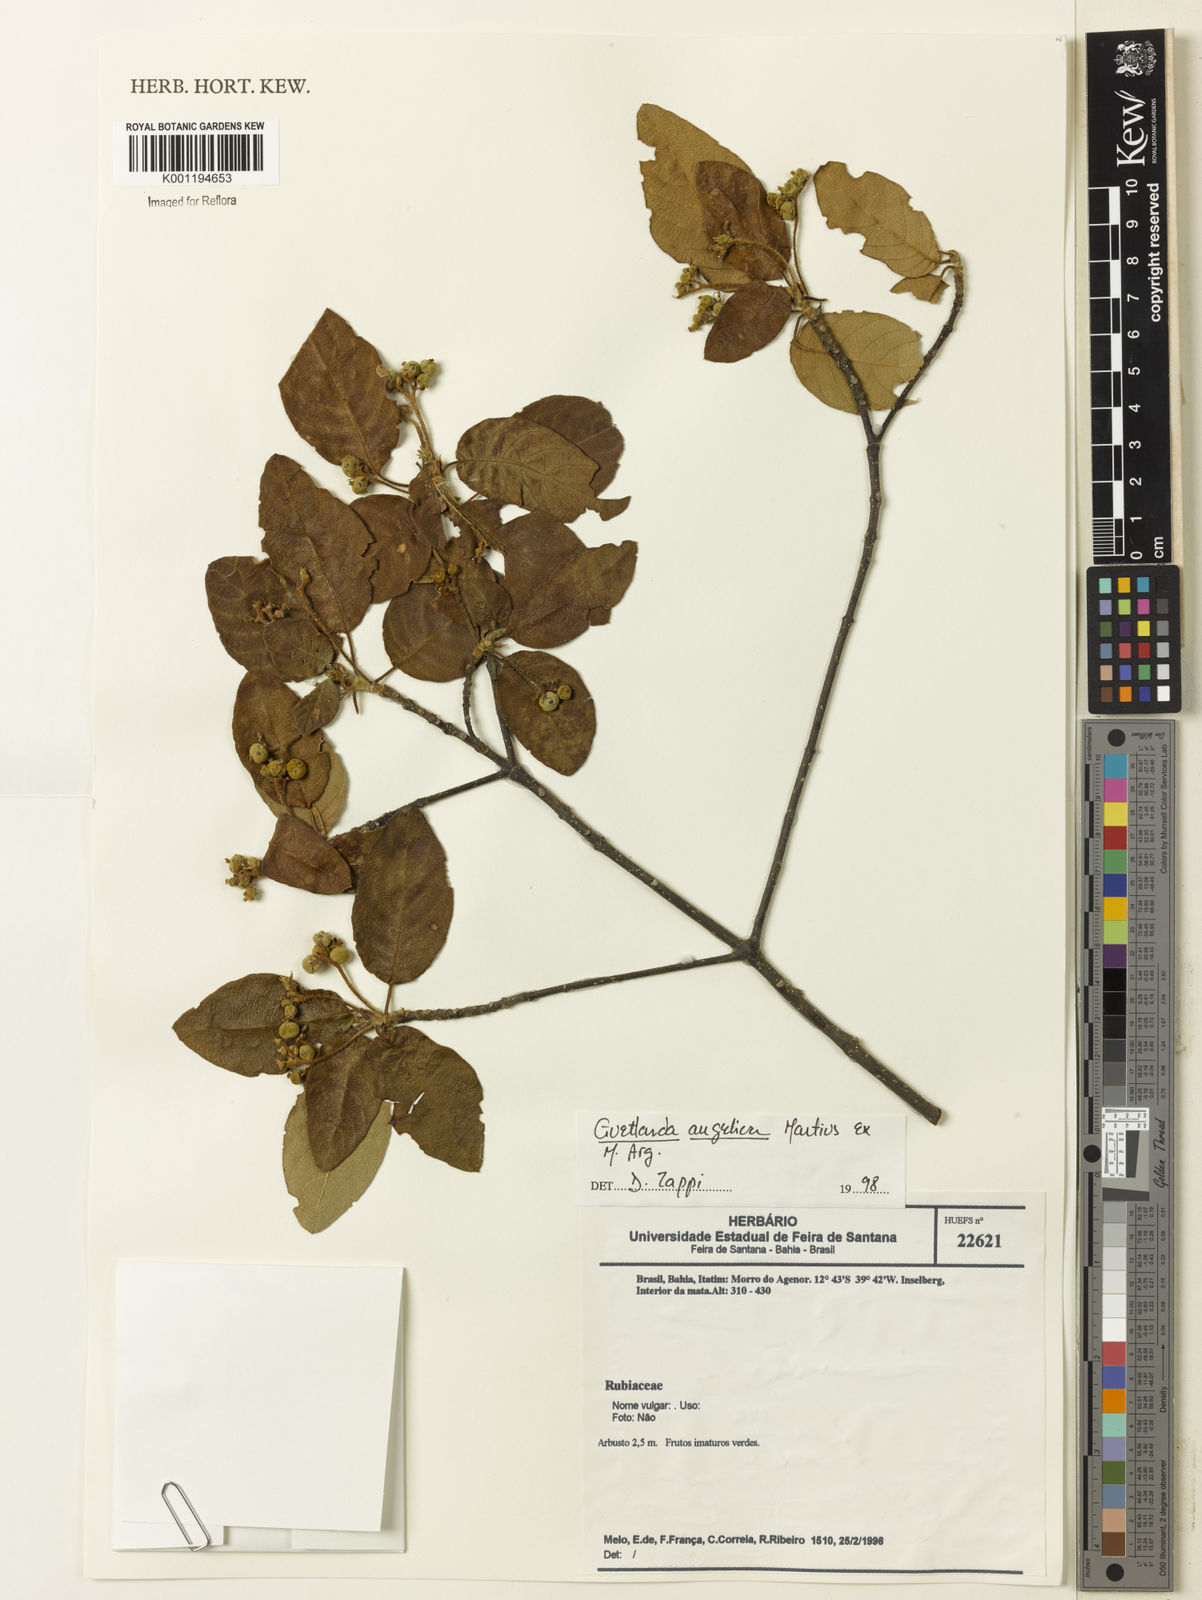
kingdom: Plantae
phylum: Tracheophyta
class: Magnoliopsida
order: Gentianales
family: Rubiaceae
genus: Guettarda
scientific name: Guettarda
